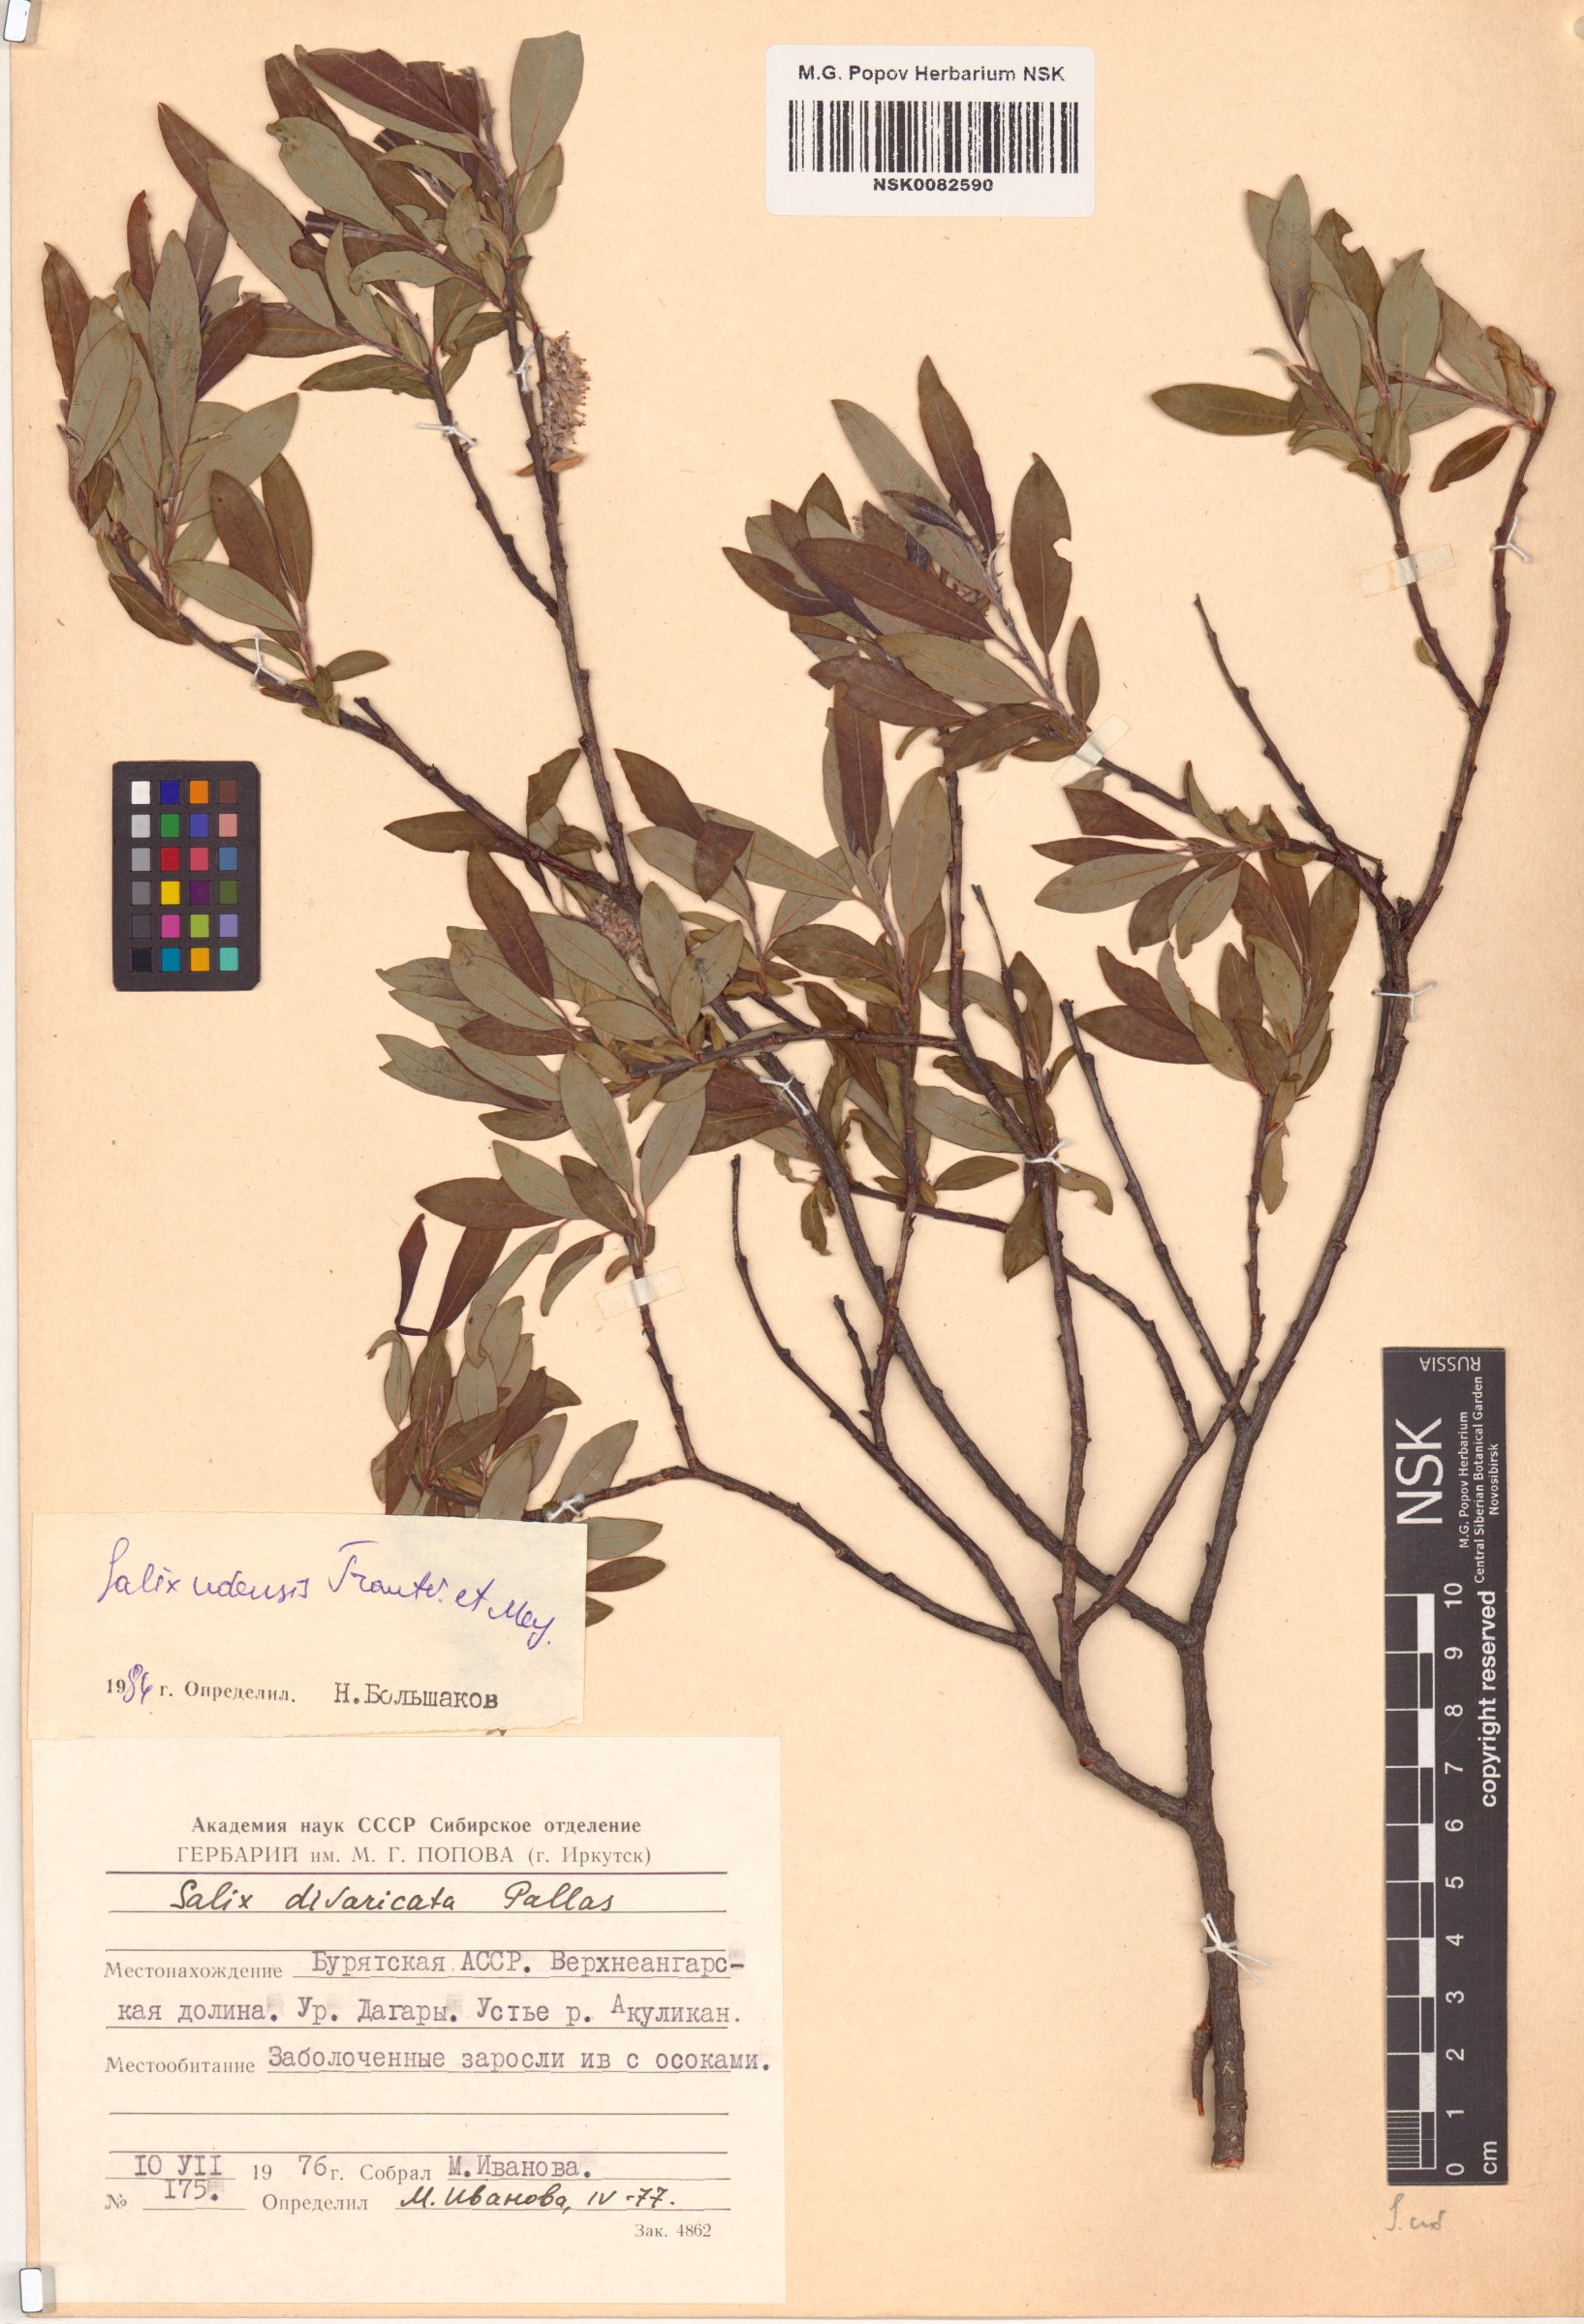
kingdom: Plantae
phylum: Tracheophyta
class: Magnoliopsida
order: Malpighiales
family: Salicaceae
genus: Salix
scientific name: Salix udensis
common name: Sachalin willow
